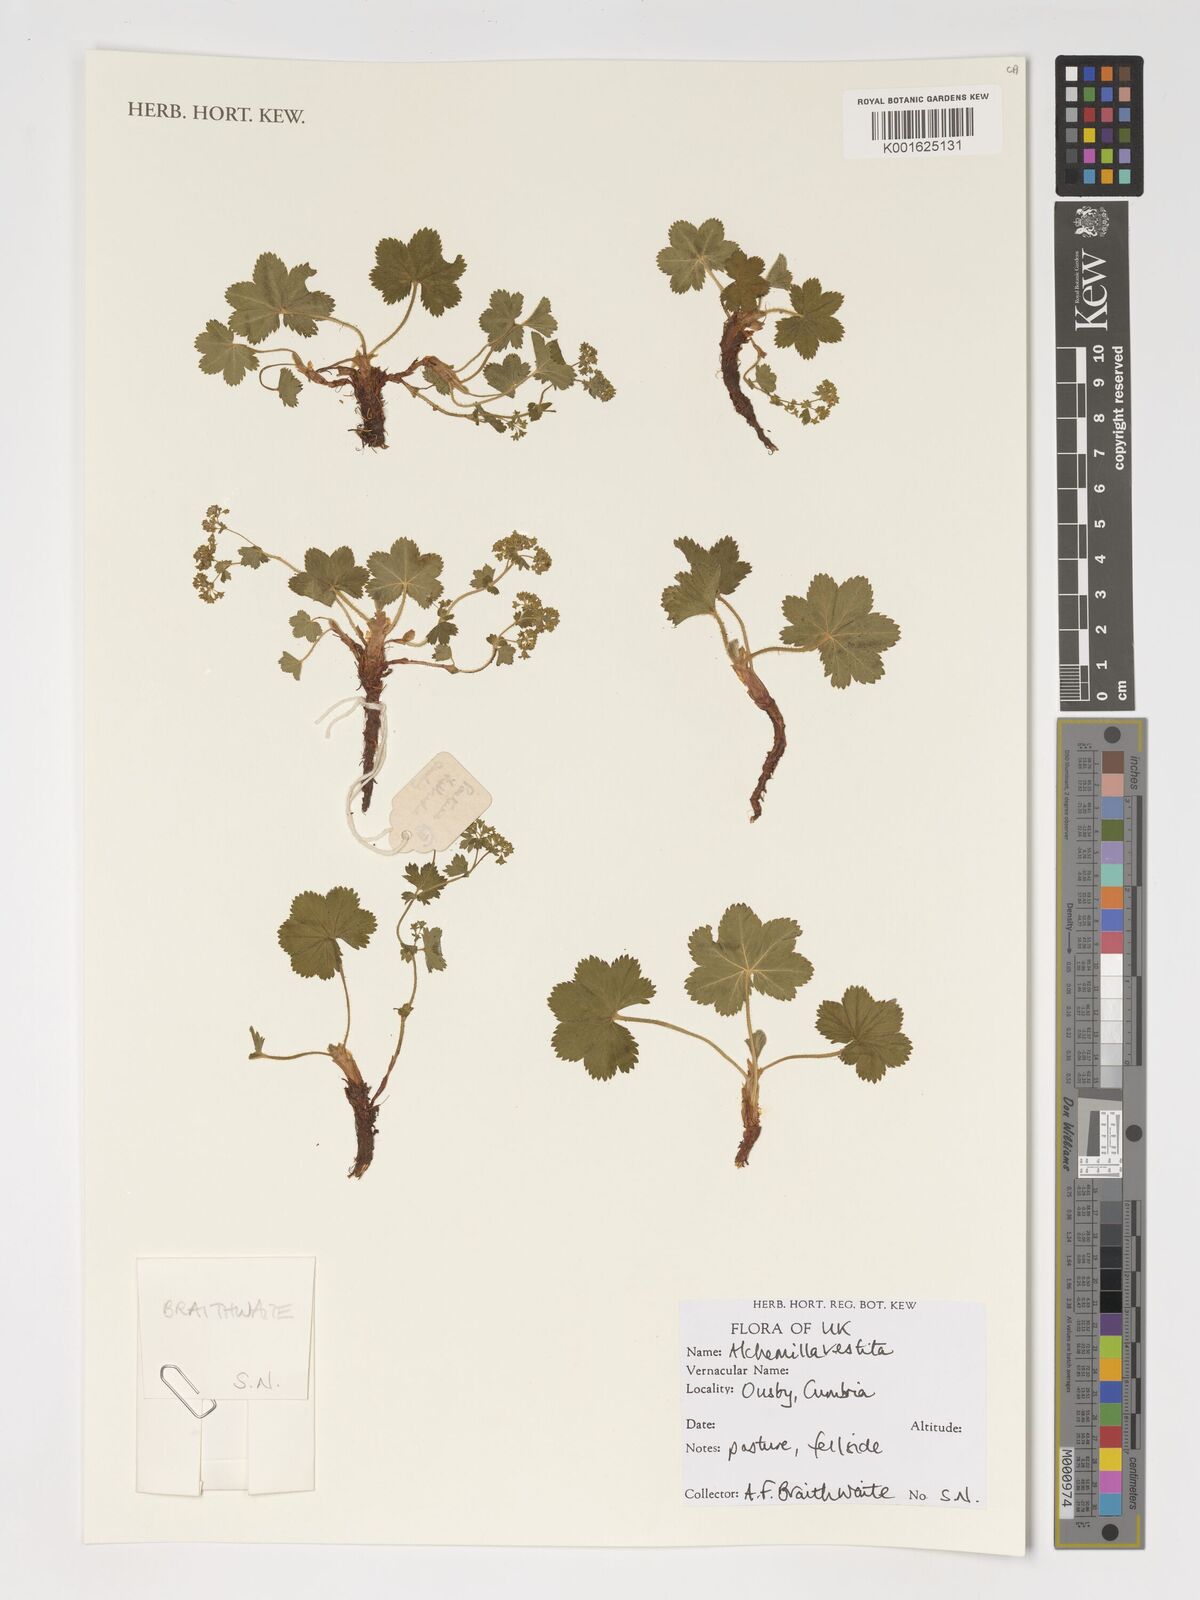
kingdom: Plantae
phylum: Tracheophyta
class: Magnoliopsida
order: Rosales
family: Rosaceae
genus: Alchemilla
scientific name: Alchemilla filicaulis
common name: Hairy lady's-mantle
